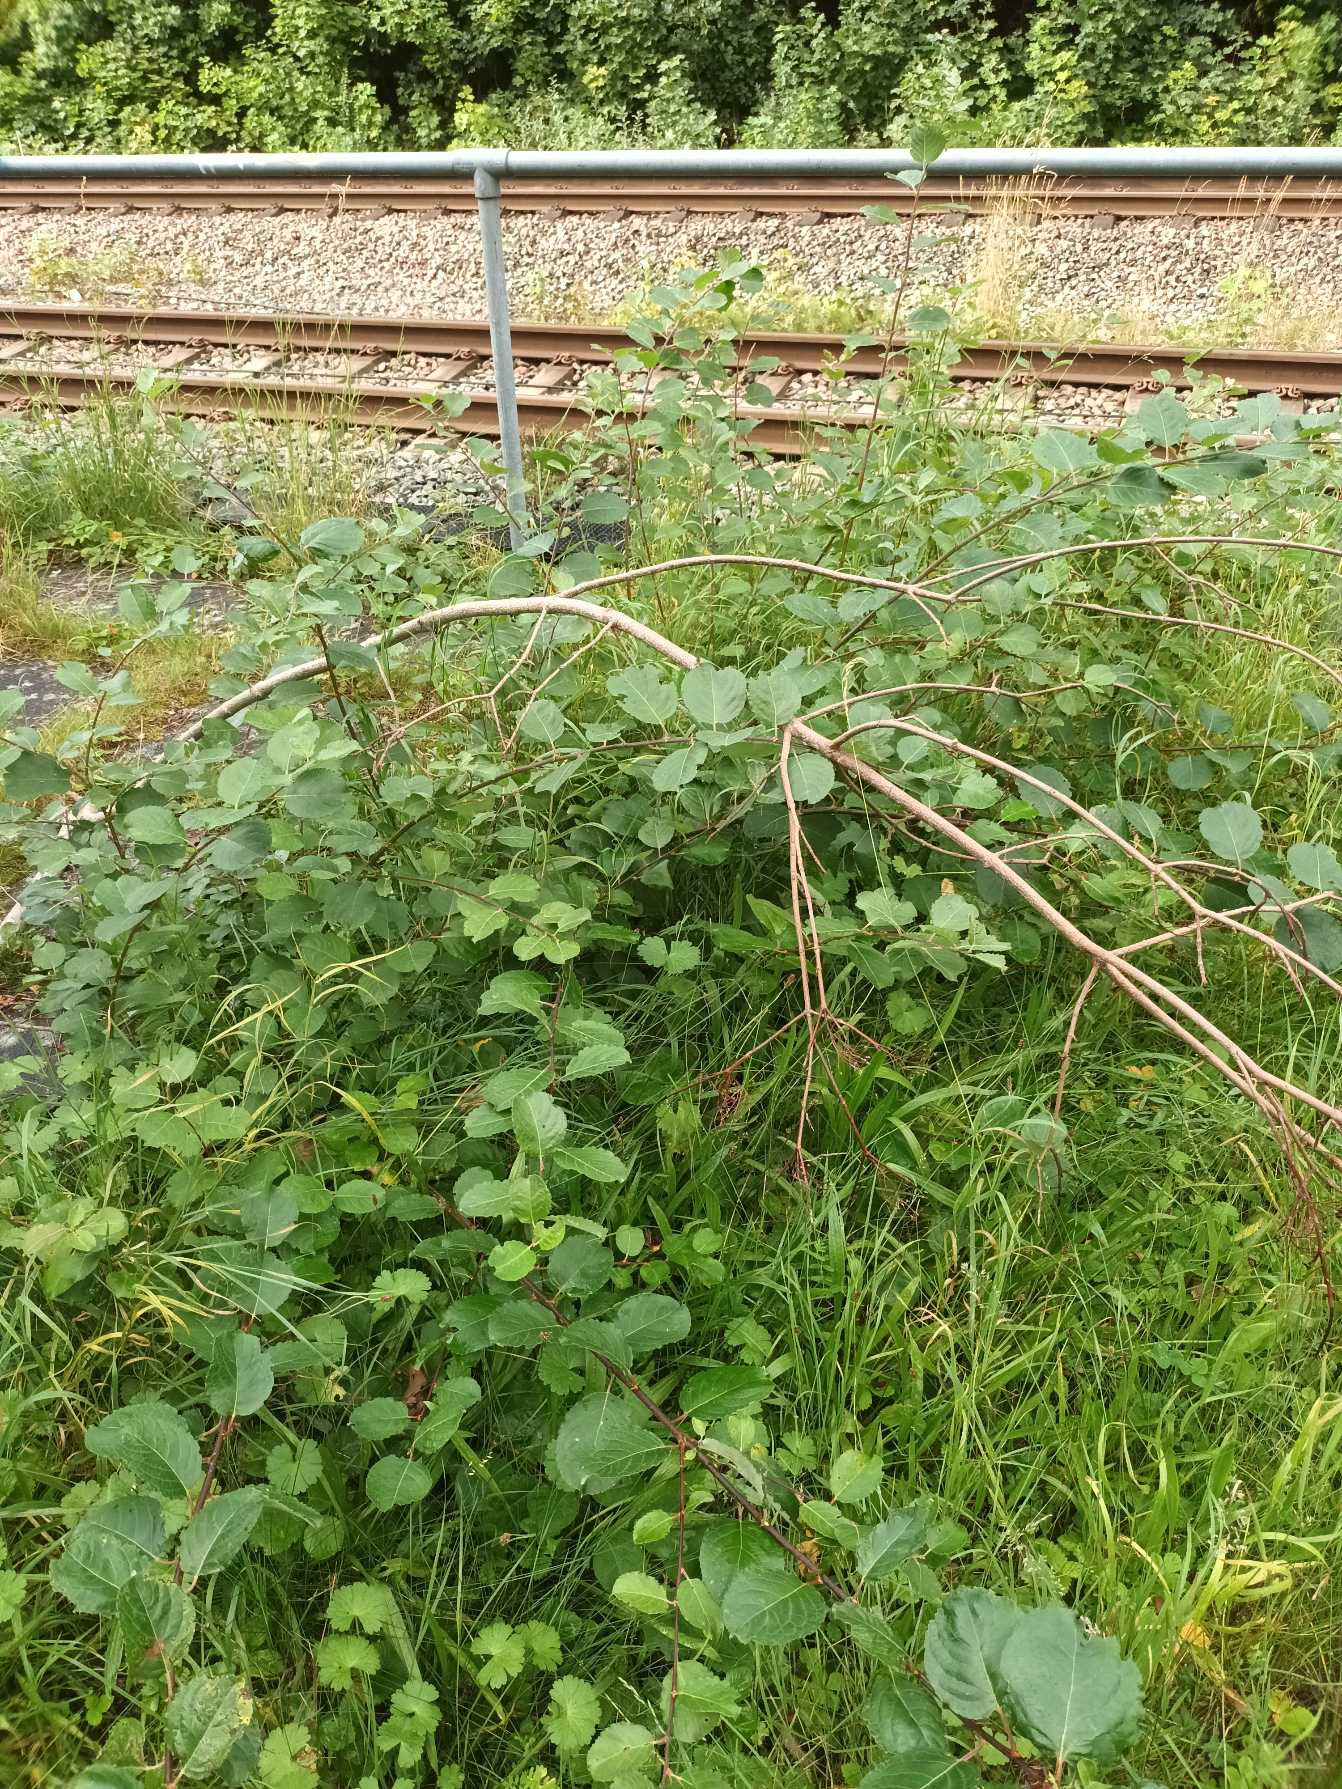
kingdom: Plantae
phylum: Tracheophyta
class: Magnoliopsida
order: Malpighiales
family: Salicaceae
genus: Salix
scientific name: Salix caprea
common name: Selje-pil
